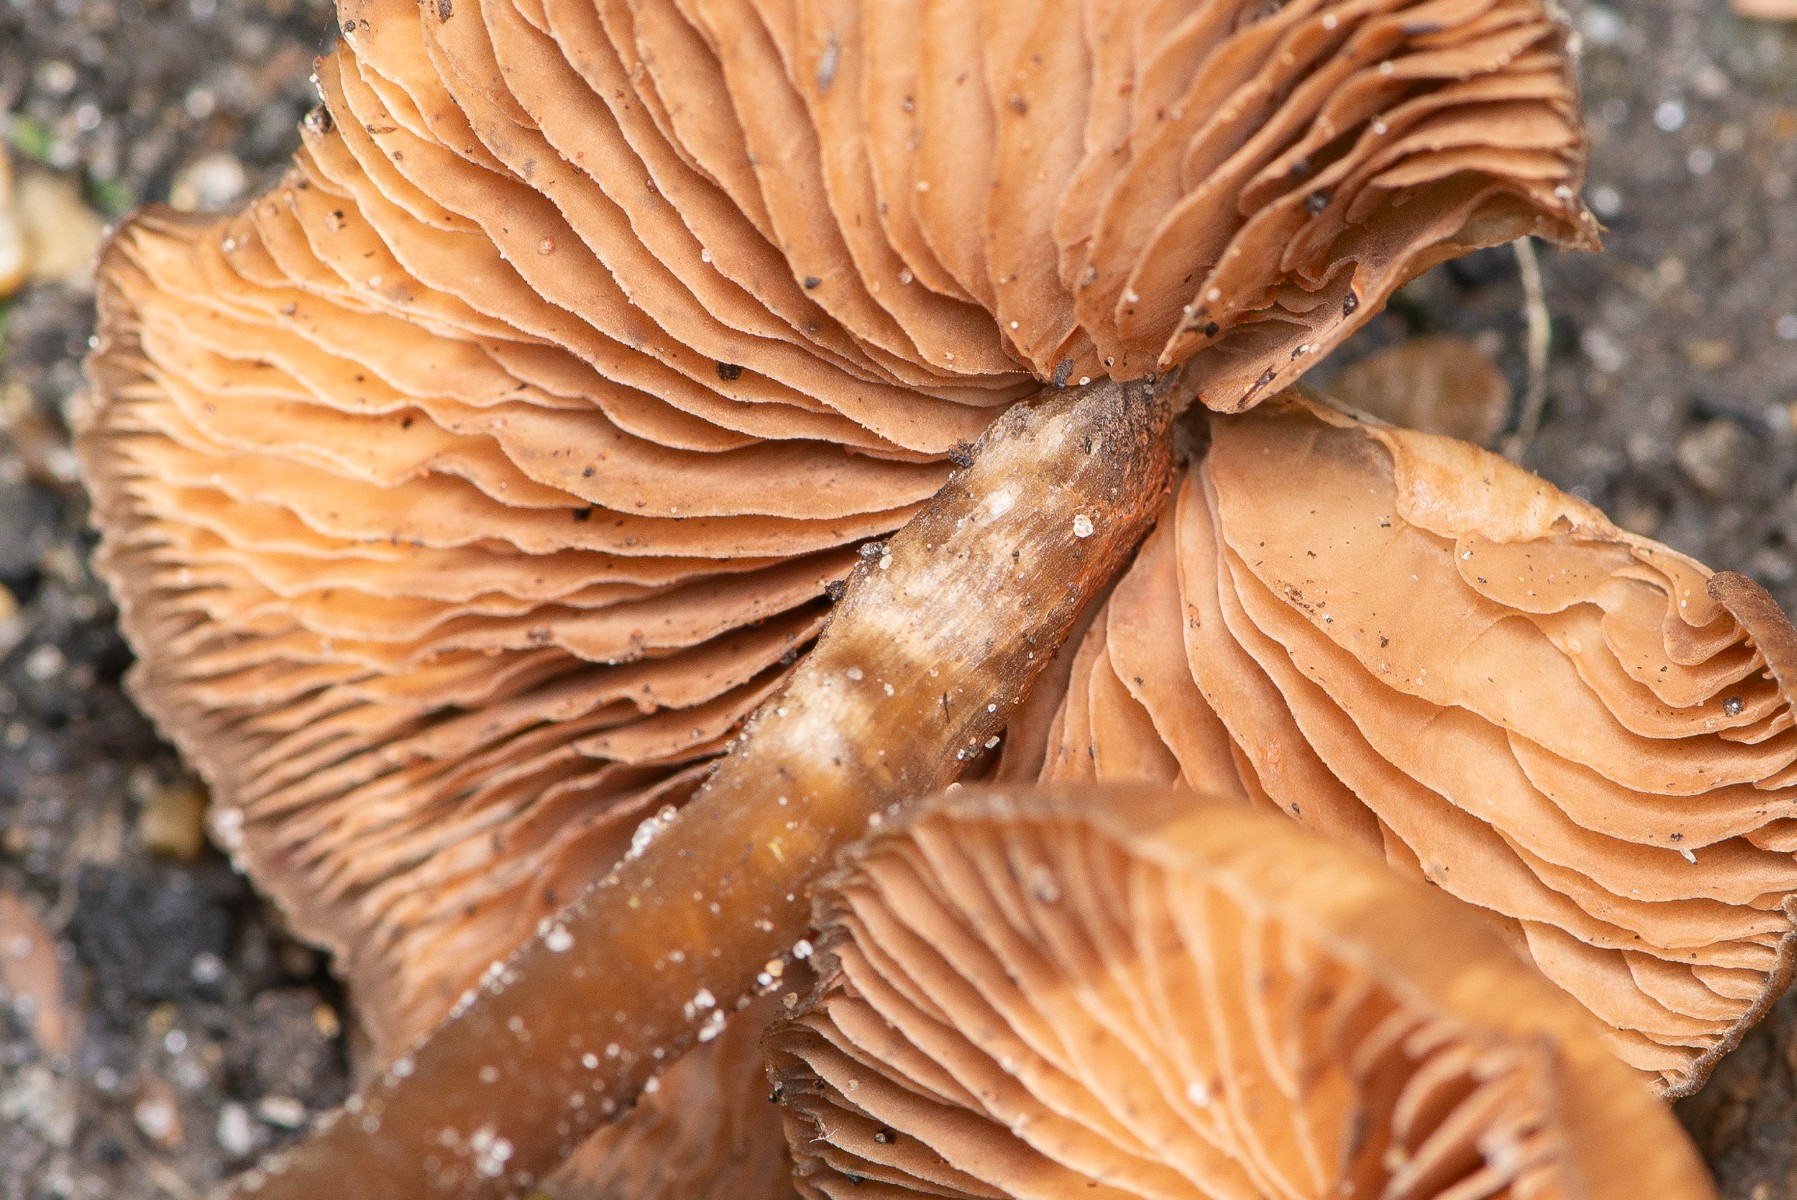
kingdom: Fungi
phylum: Basidiomycota
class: Agaricomycetes
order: Agaricales
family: Entolomataceae
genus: Entoloma
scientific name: Entoloma
